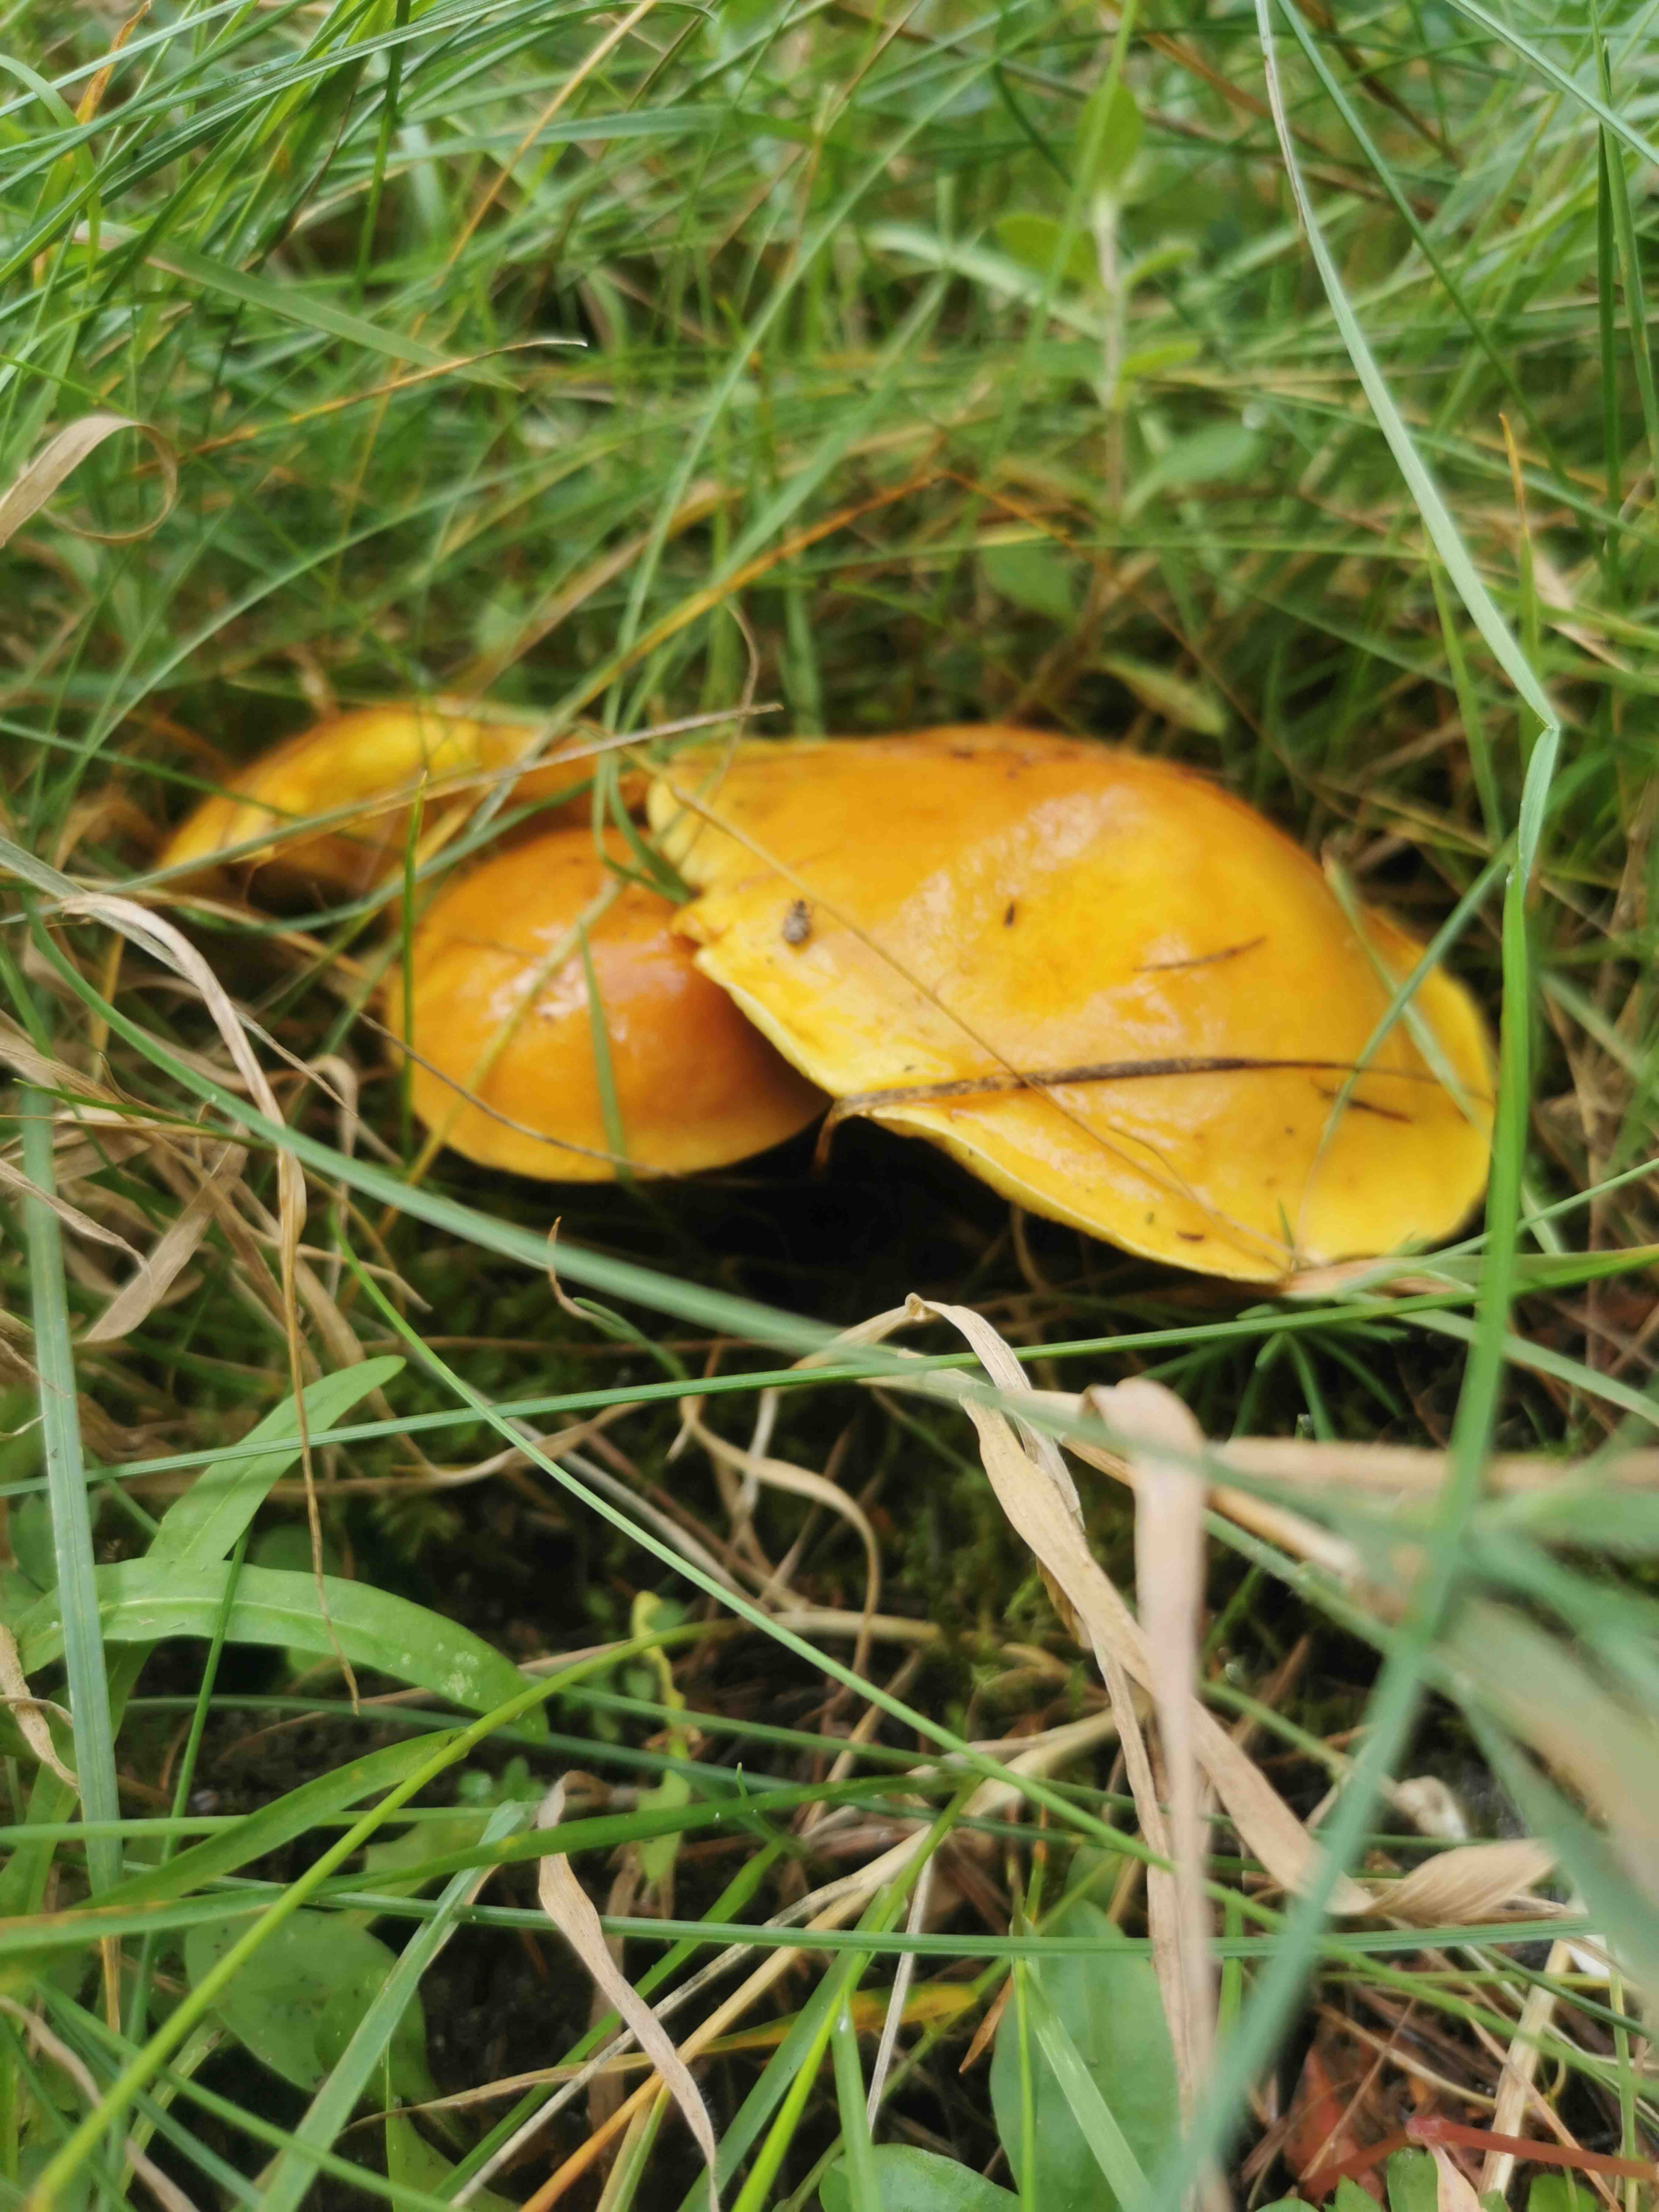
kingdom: Fungi
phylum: Basidiomycota
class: Agaricomycetes
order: Boletales
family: Suillaceae
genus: Suillus
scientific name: Suillus grevillei
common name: lærke-slimrørhat
